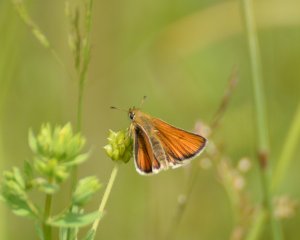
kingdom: Animalia
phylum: Arthropoda
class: Insecta
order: Lepidoptera
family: Hesperiidae
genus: Thymelicus
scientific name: Thymelicus lineola
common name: European Skipper
